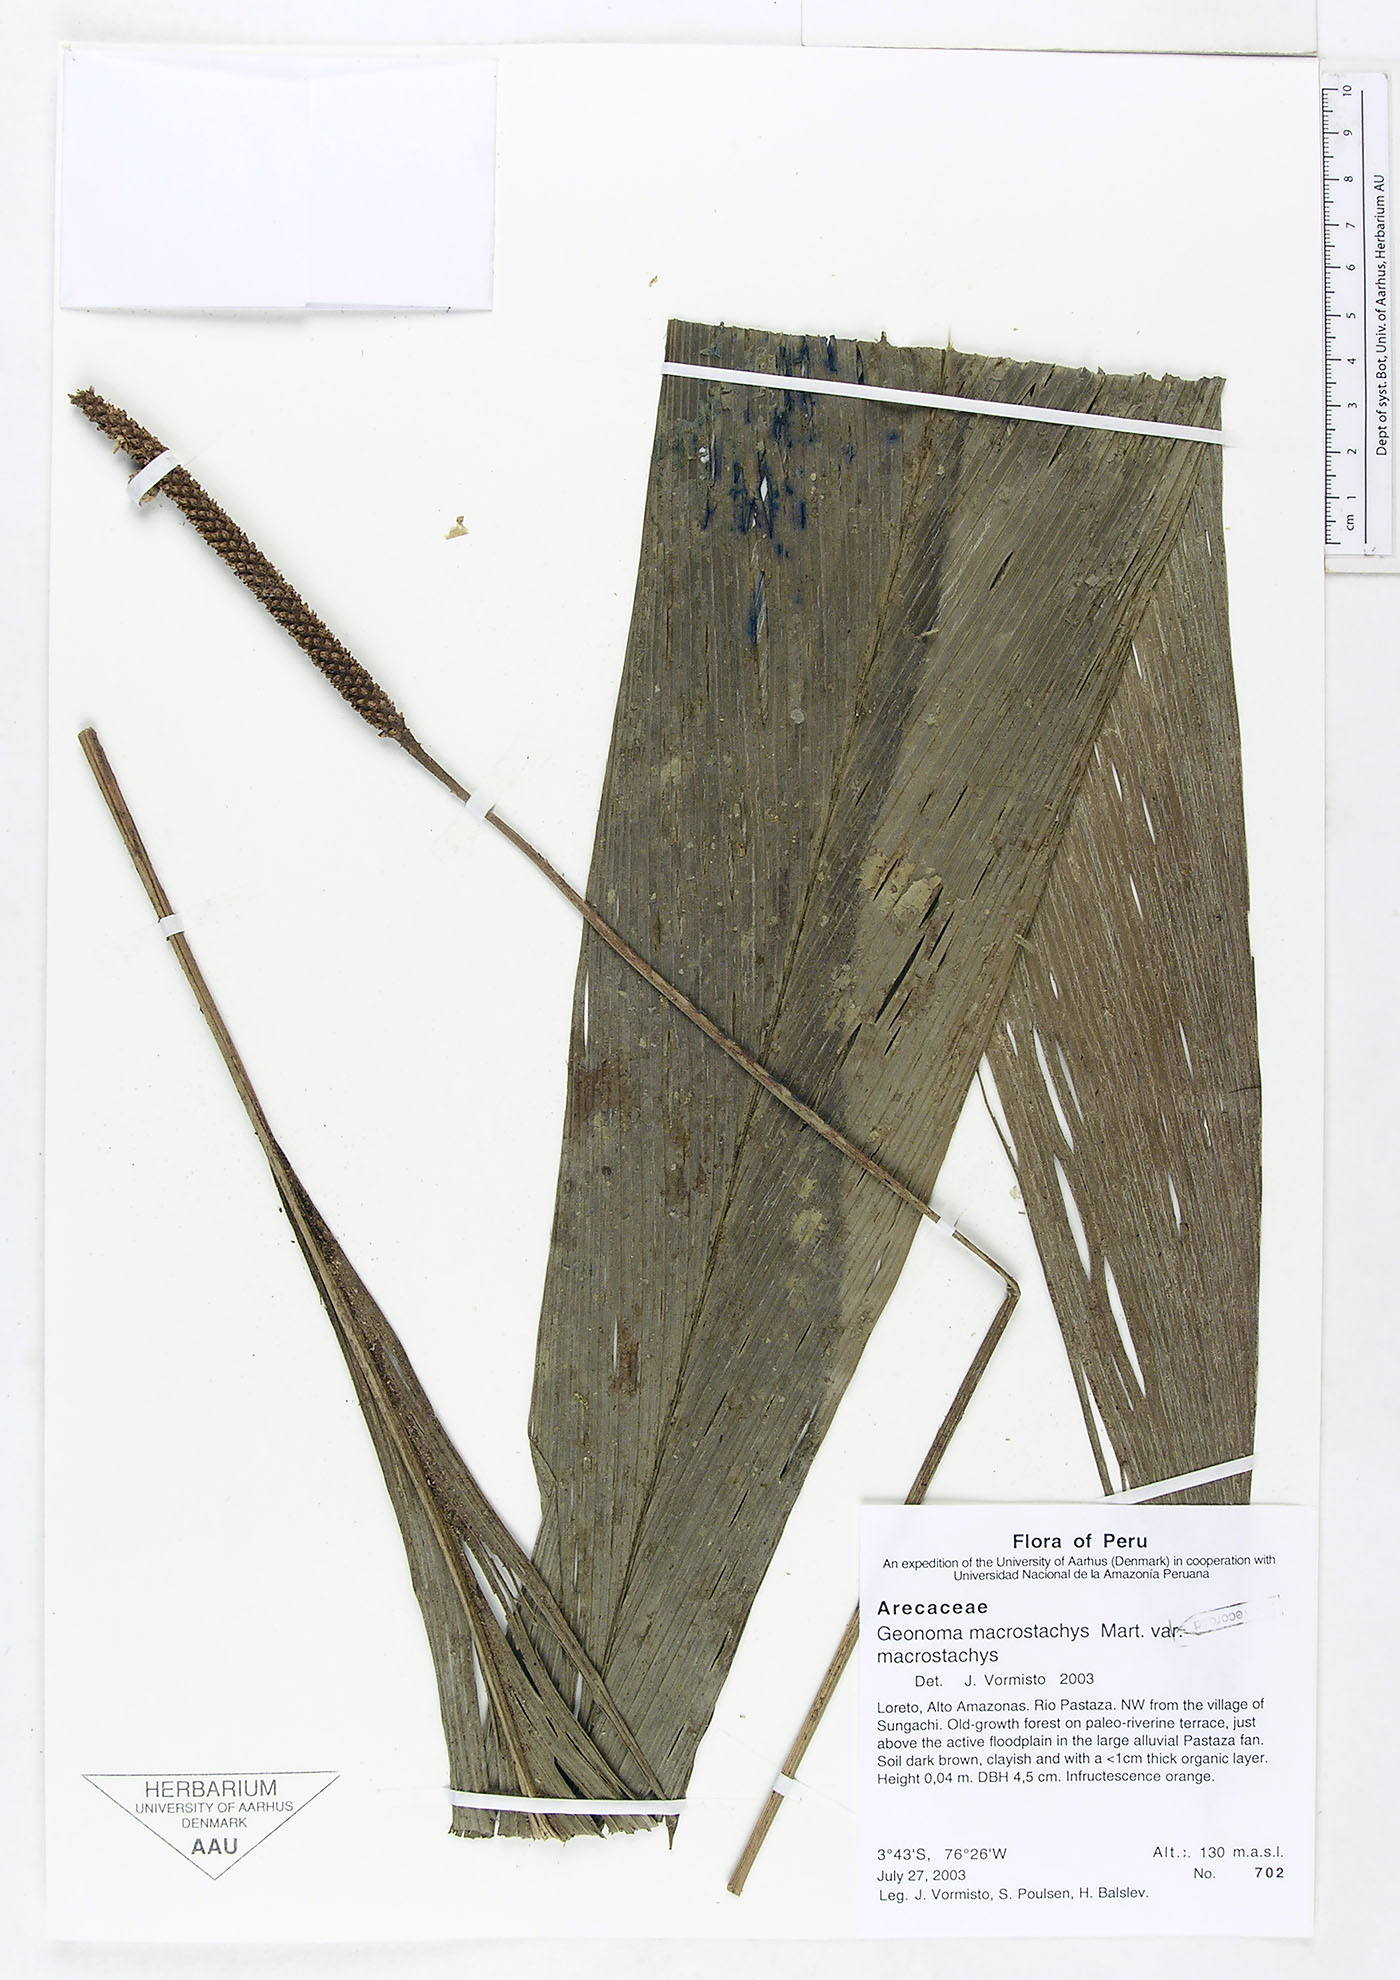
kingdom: Plantae
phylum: Tracheophyta
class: Liliopsida
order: Arecales
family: Arecaceae
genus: Geonoma
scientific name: Geonoma macrostachys
